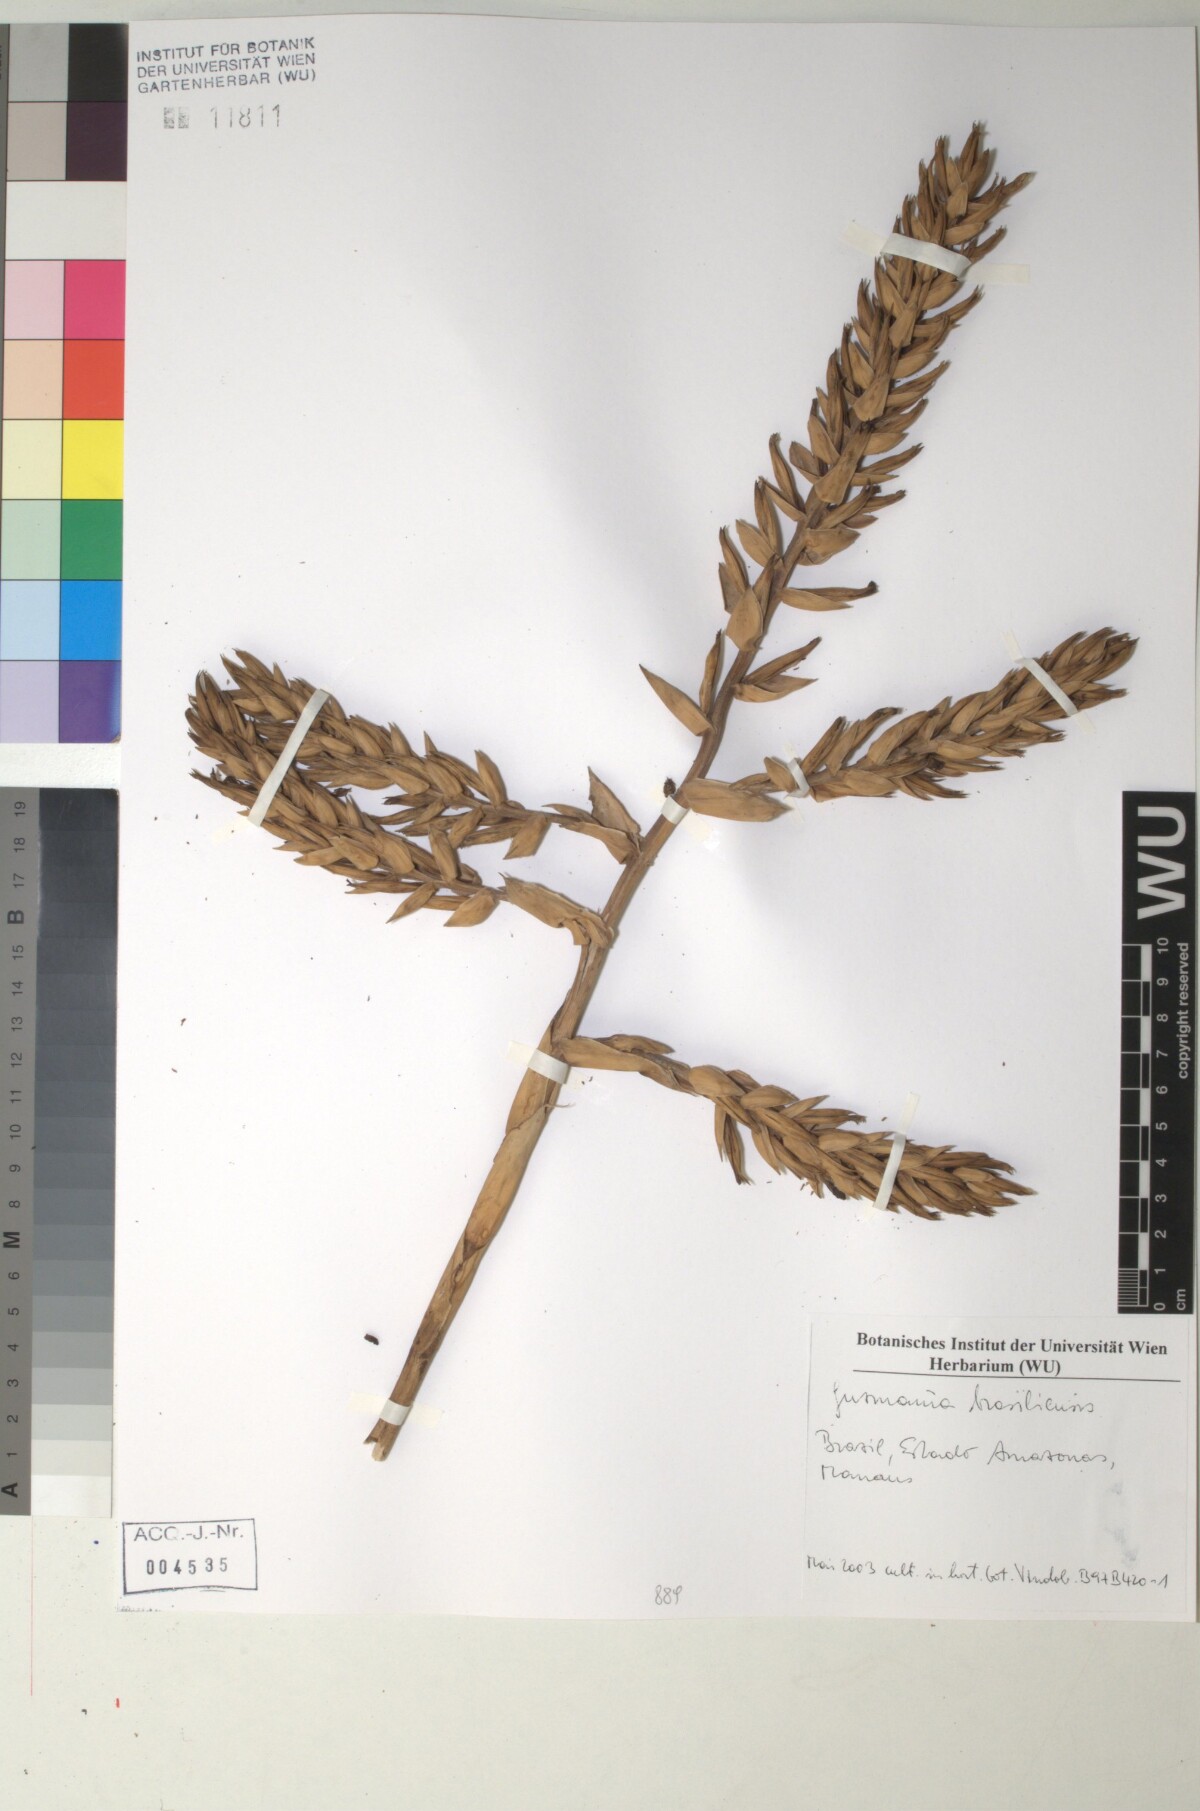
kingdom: Plantae
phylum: Tracheophyta
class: Liliopsida
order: Poales
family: Bromeliaceae
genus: Guzmania
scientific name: Guzmania brasiliensis
